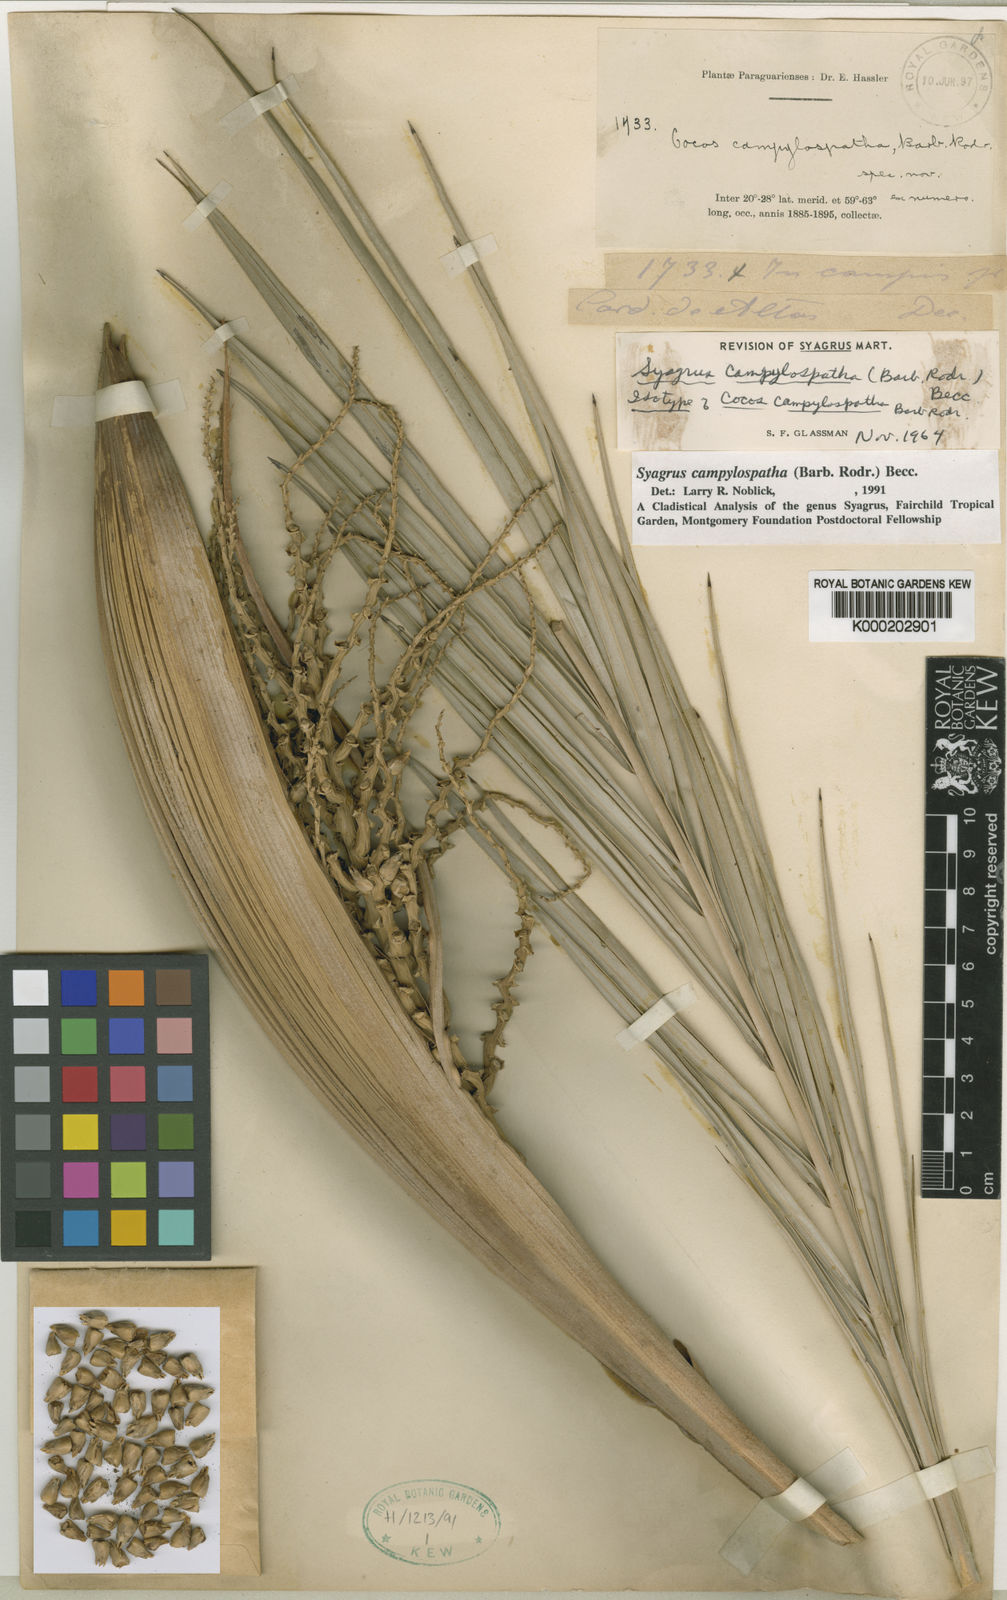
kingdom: Plantae
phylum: Tracheophyta
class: Liliopsida
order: Arecales
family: Arecaceae
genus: Syagrus
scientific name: Syagrus campylospatha
